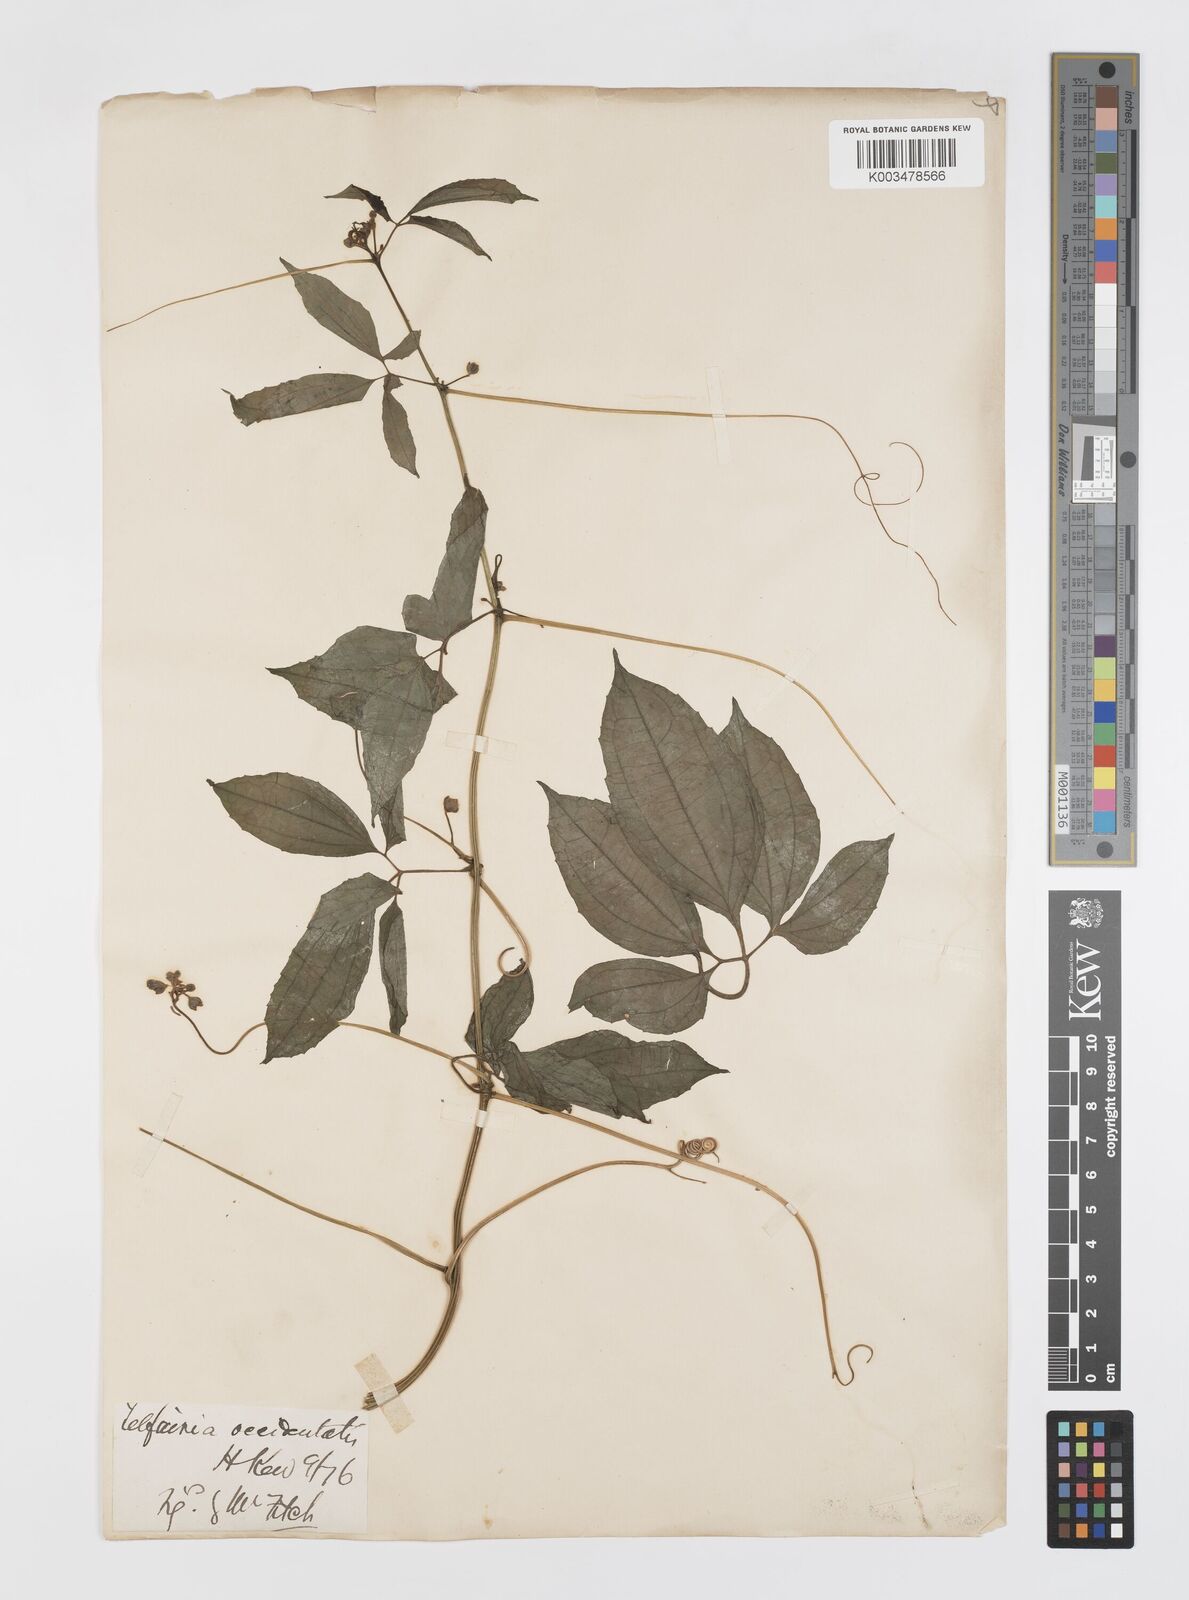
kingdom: Plantae
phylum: Tracheophyta
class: Magnoliopsida
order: Cucurbitales
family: Cucurbitaceae
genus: Telfairia
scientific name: Telfairia occidentalis
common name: Oysternut
